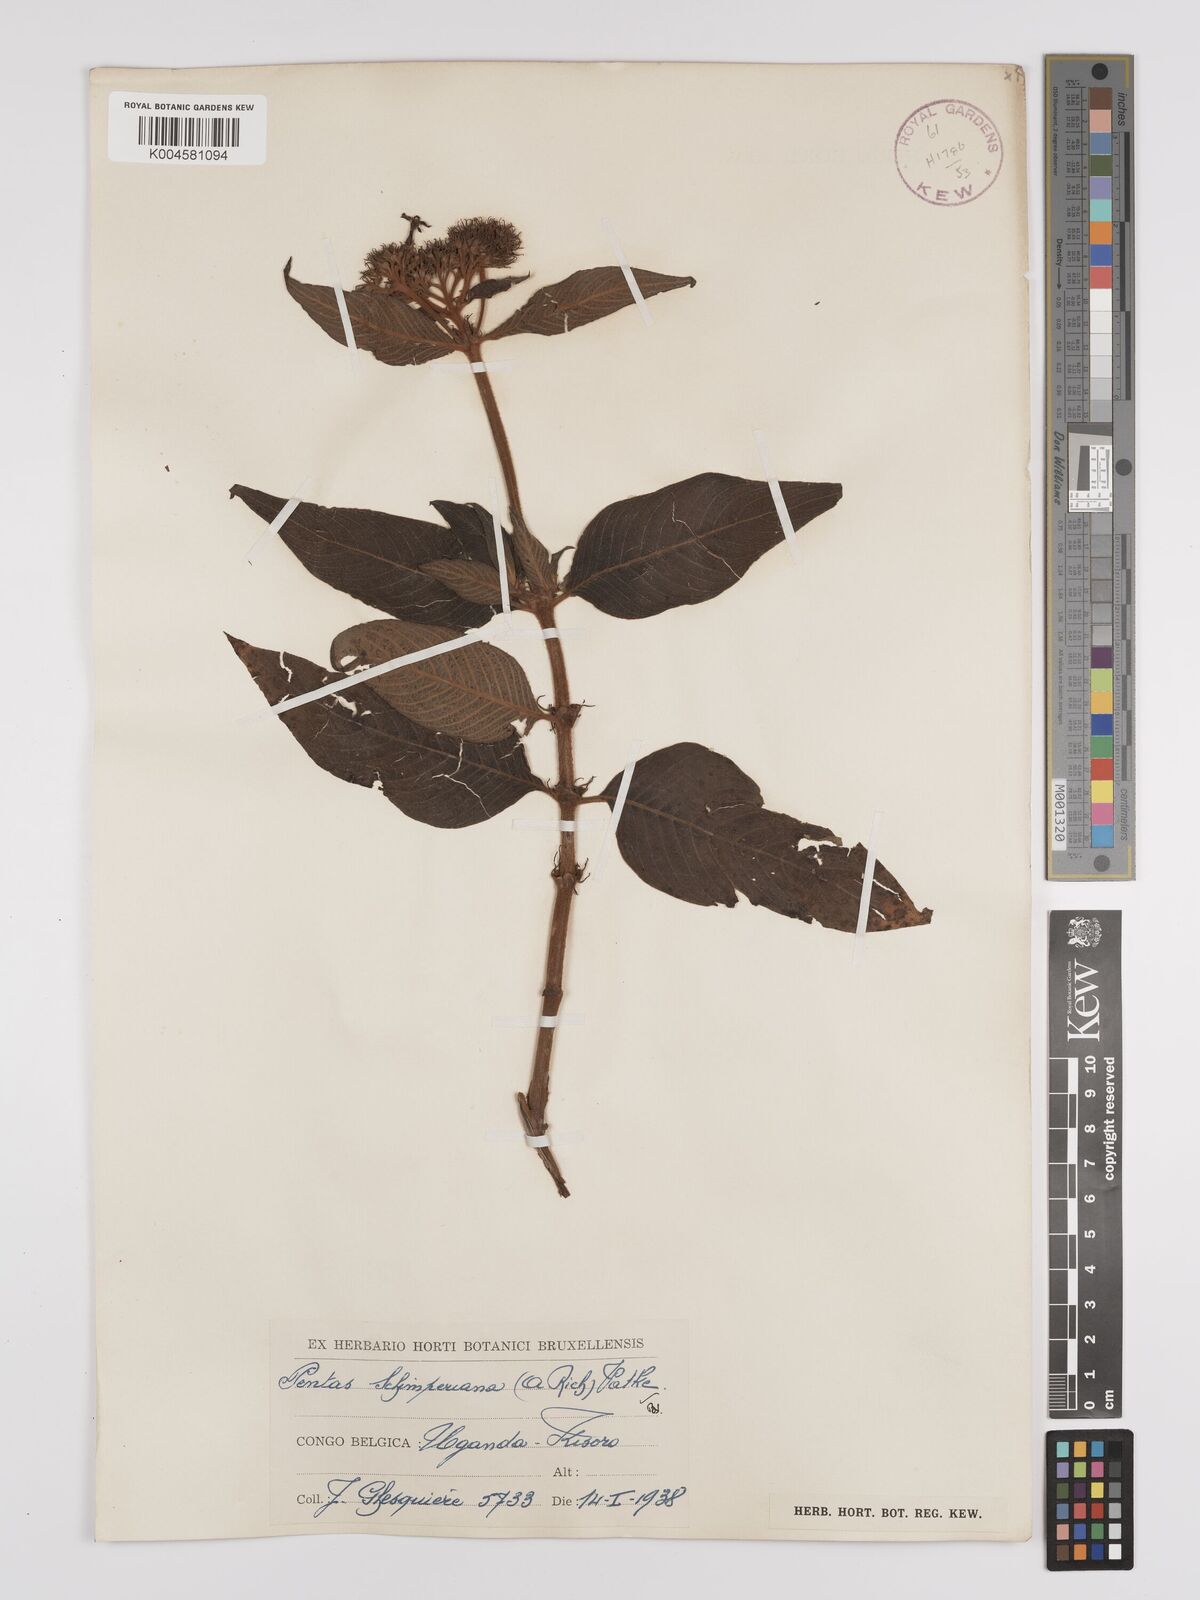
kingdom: Plantae
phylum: Tracheophyta
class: Magnoliopsida
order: Gentianales
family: Rubiaceae
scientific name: Rubiaceae
